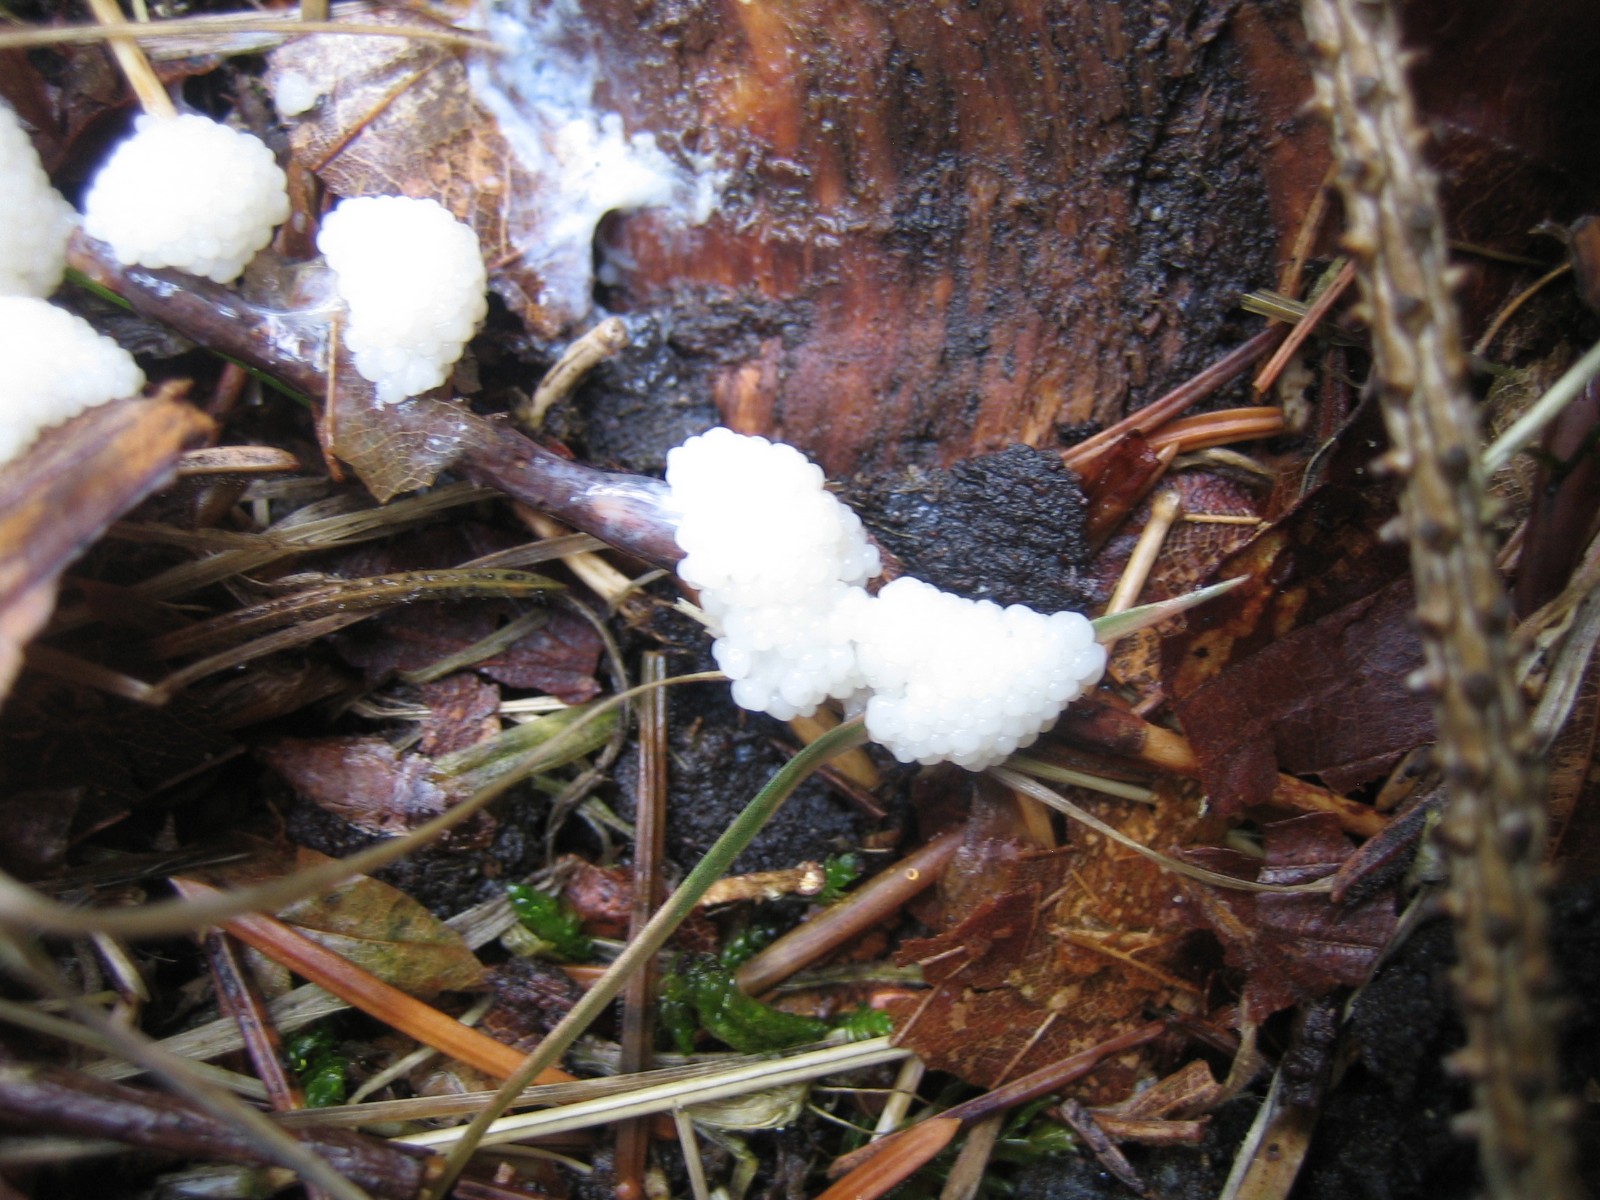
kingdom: Protozoa
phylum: Mycetozoa
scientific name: Mycetozoa
